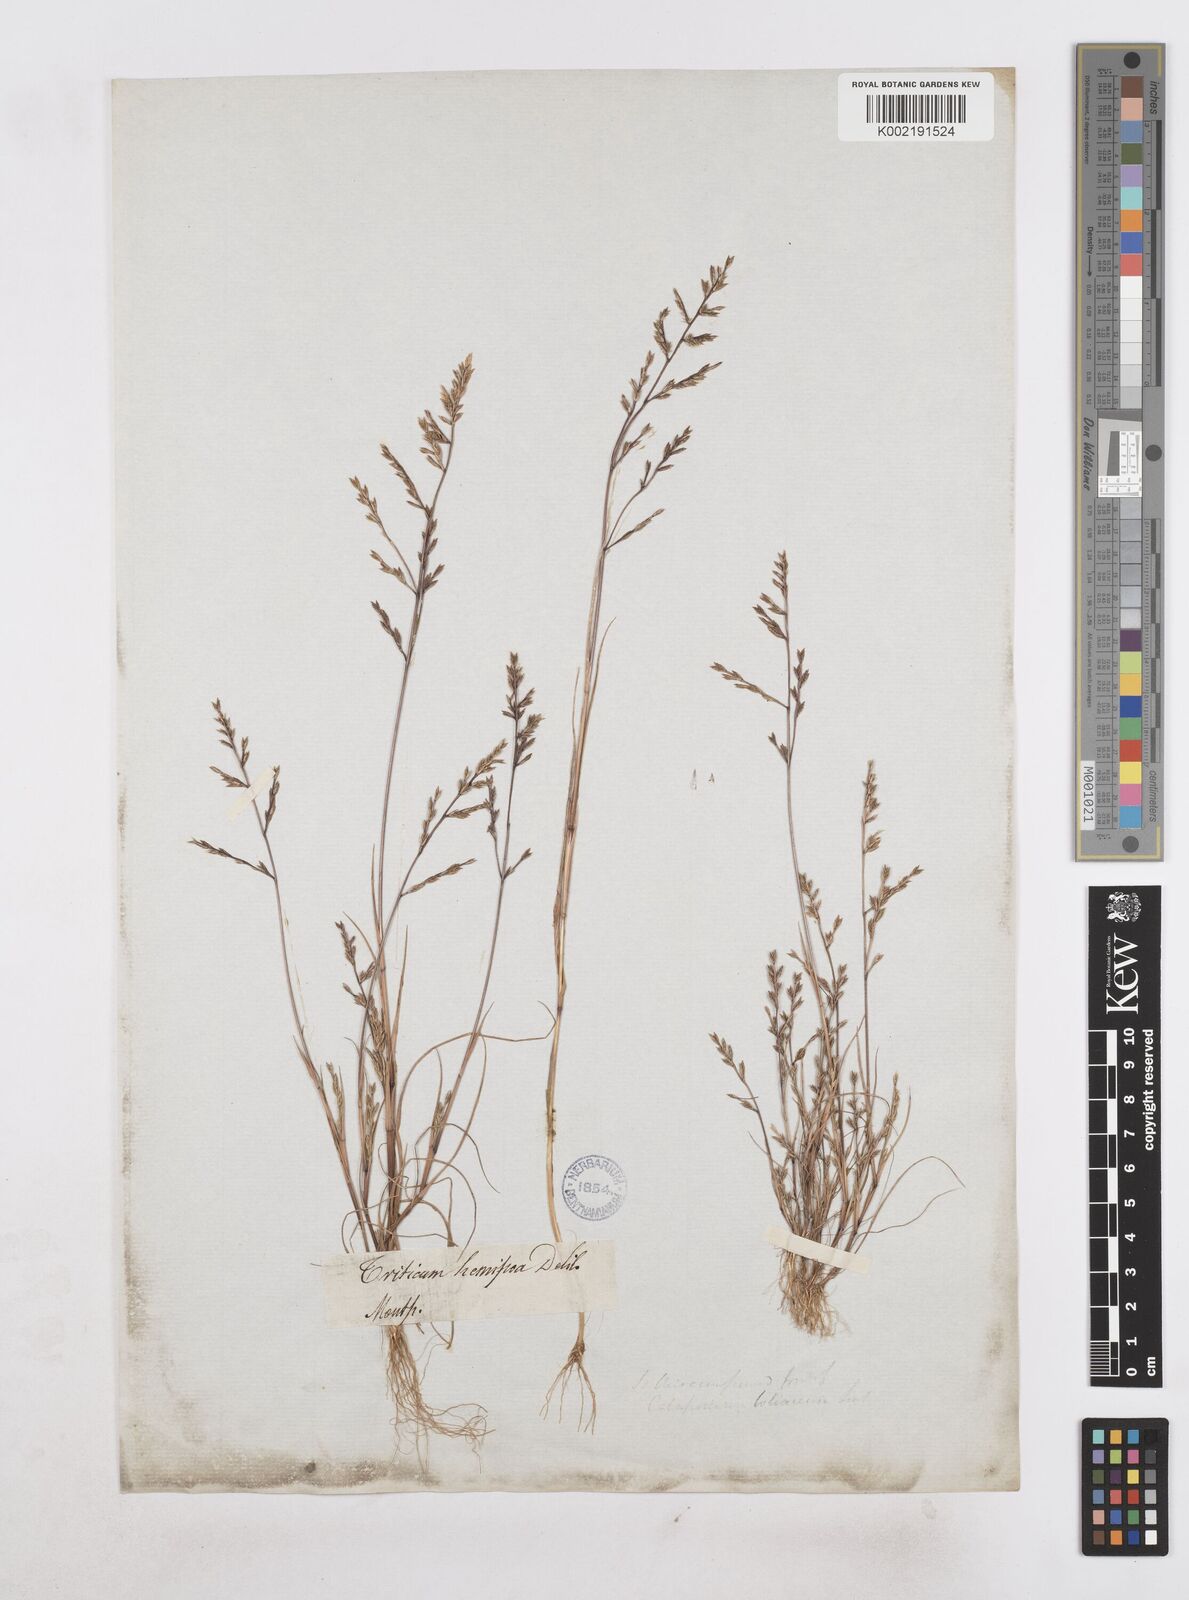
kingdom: Plantae
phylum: Tracheophyta
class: Liliopsida
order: Poales
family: Poaceae
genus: Catapodium
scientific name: Catapodium hemipoa
